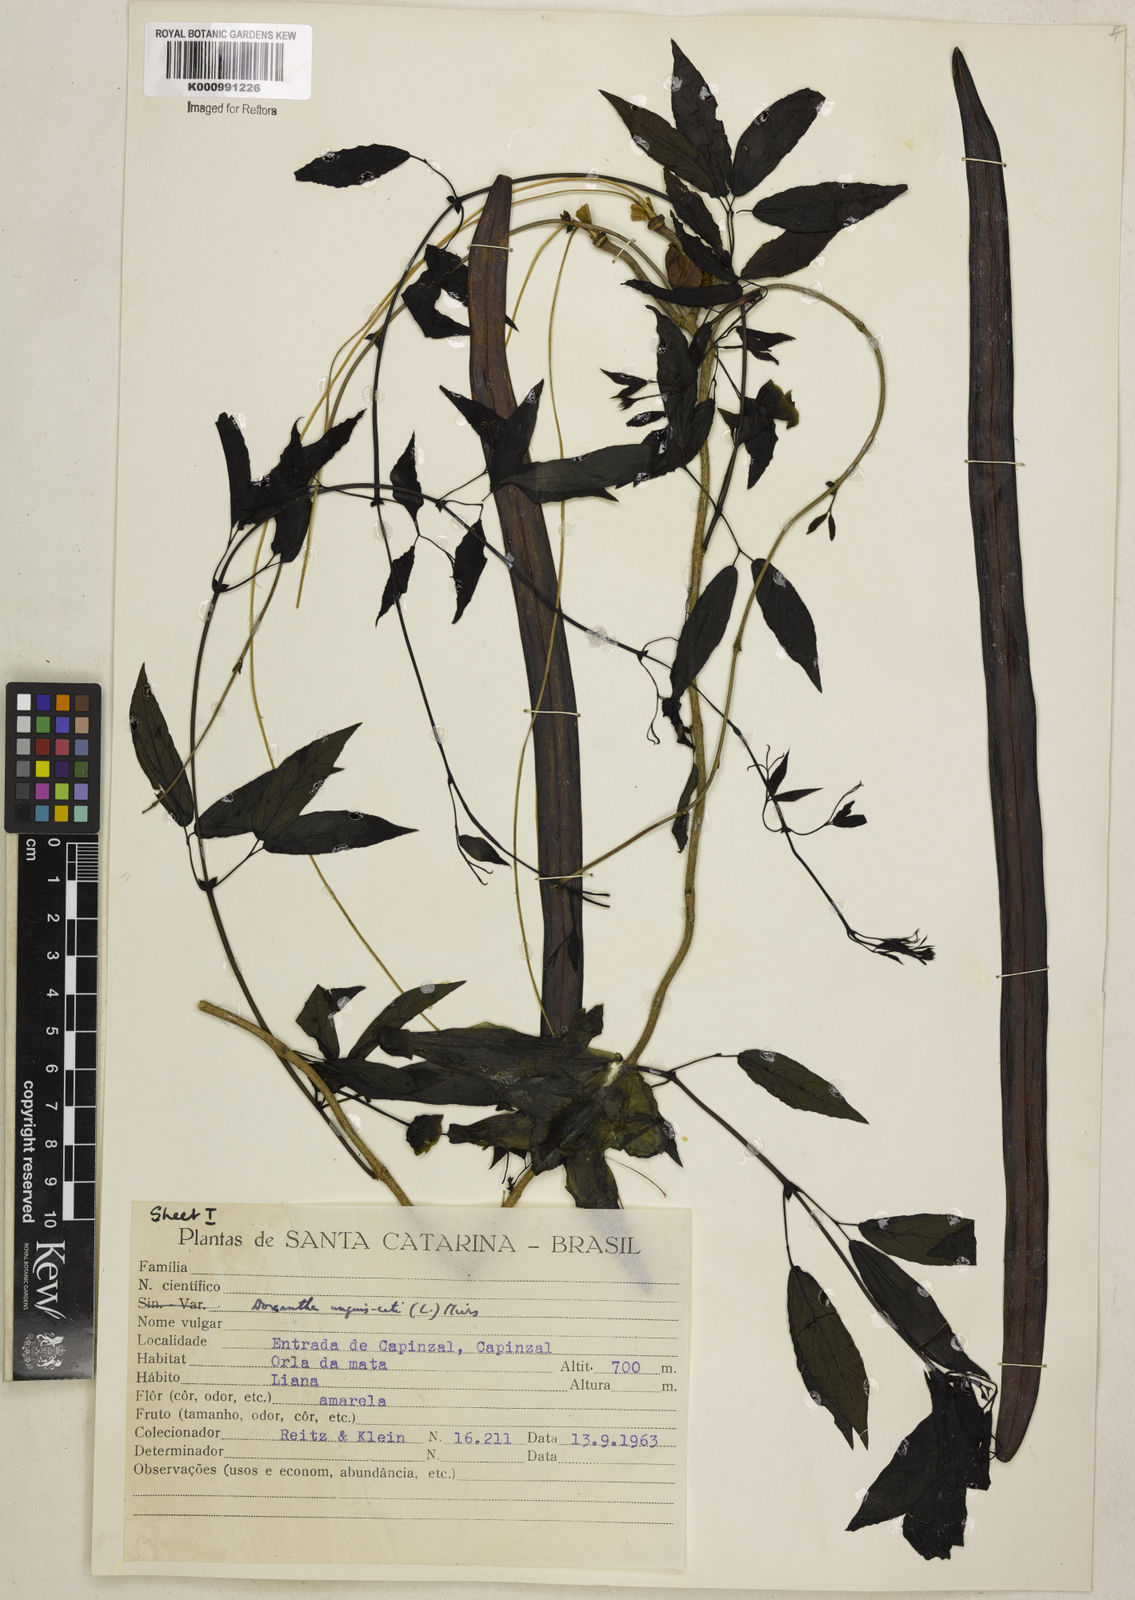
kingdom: Plantae
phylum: Tracheophyta
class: Magnoliopsida
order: Lamiales
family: Bignoniaceae
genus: Dolichandra
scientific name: Dolichandra unguis-cati
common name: Catclaw vine
